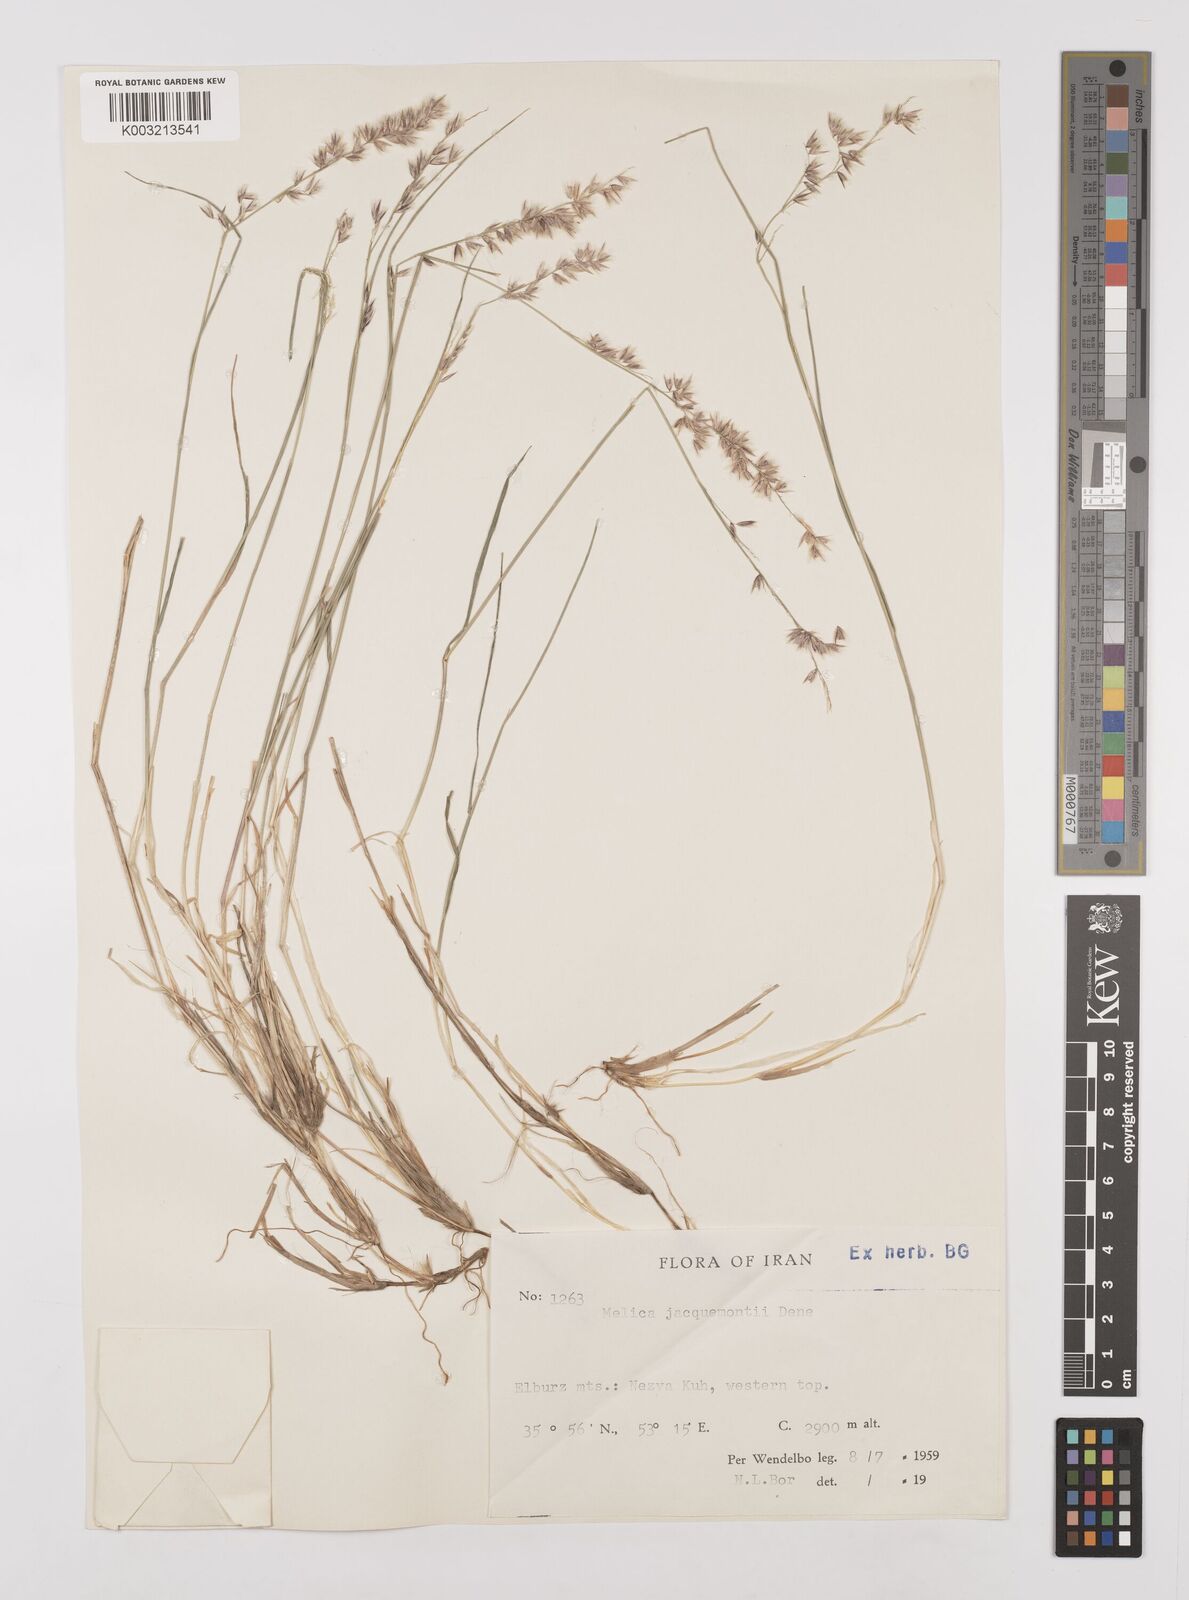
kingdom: Plantae
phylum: Tracheophyta
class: Liliopsida
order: Poales
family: Poaceae
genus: Melica
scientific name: Melica persica
